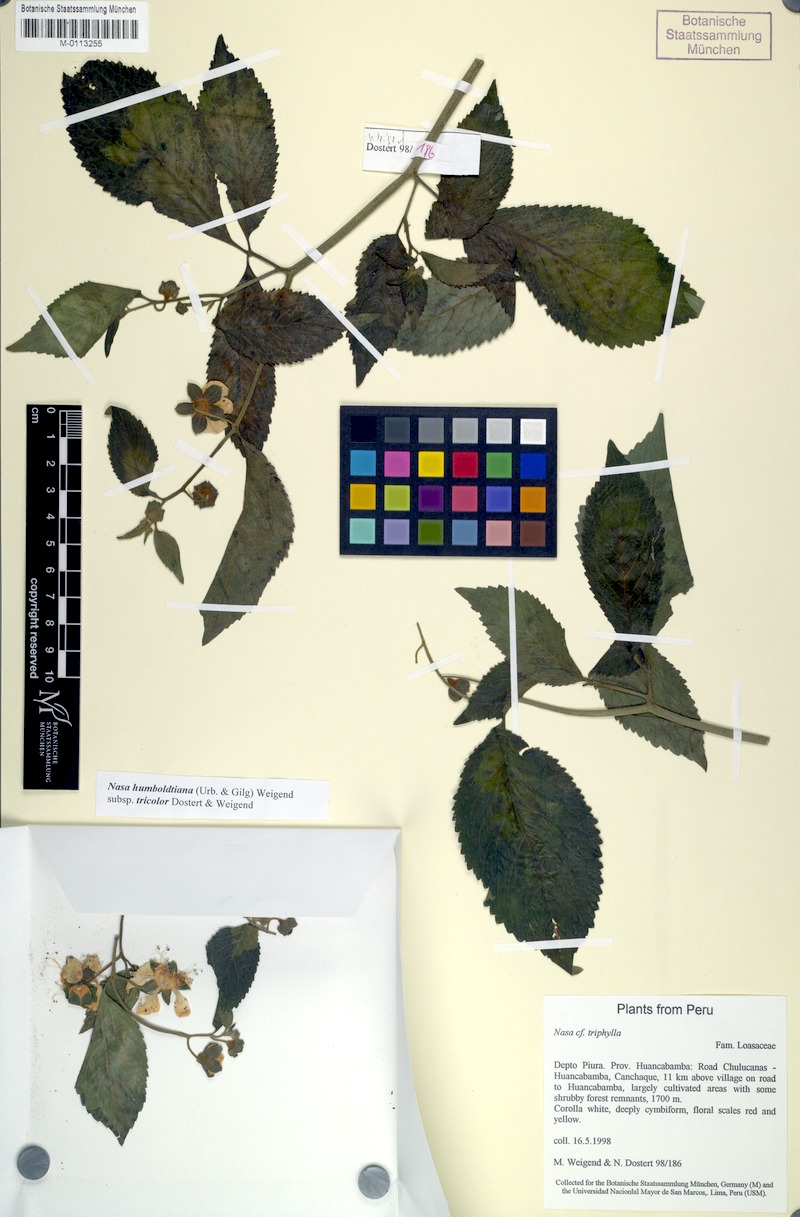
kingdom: Plantae
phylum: Tracheophyta
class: Magnoliopsida
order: Cornales
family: Loasaceae
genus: Nasa
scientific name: Nasa humboldtiana
